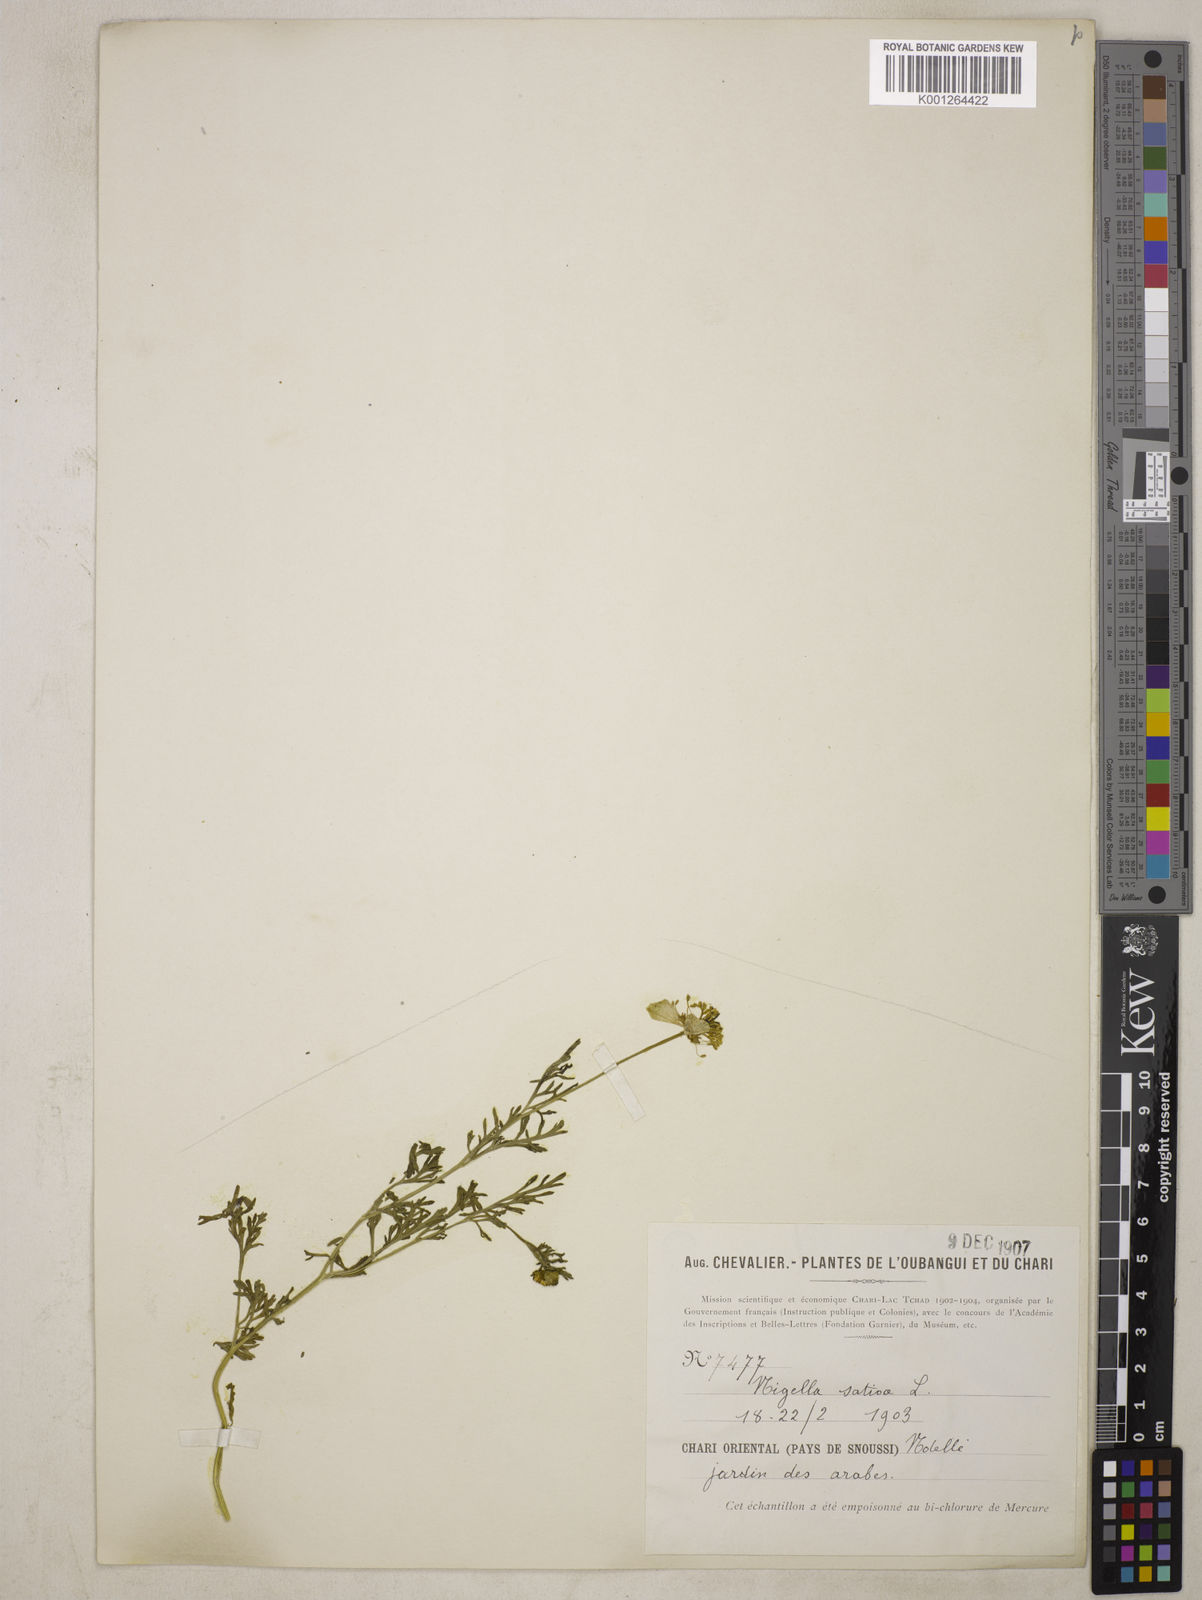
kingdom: Plantae
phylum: Tracheophyta
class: Magnoliopsida
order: Ranunculales
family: Ranunculaceae
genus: Nigella
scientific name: Nigella sativa
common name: Black-cumin
